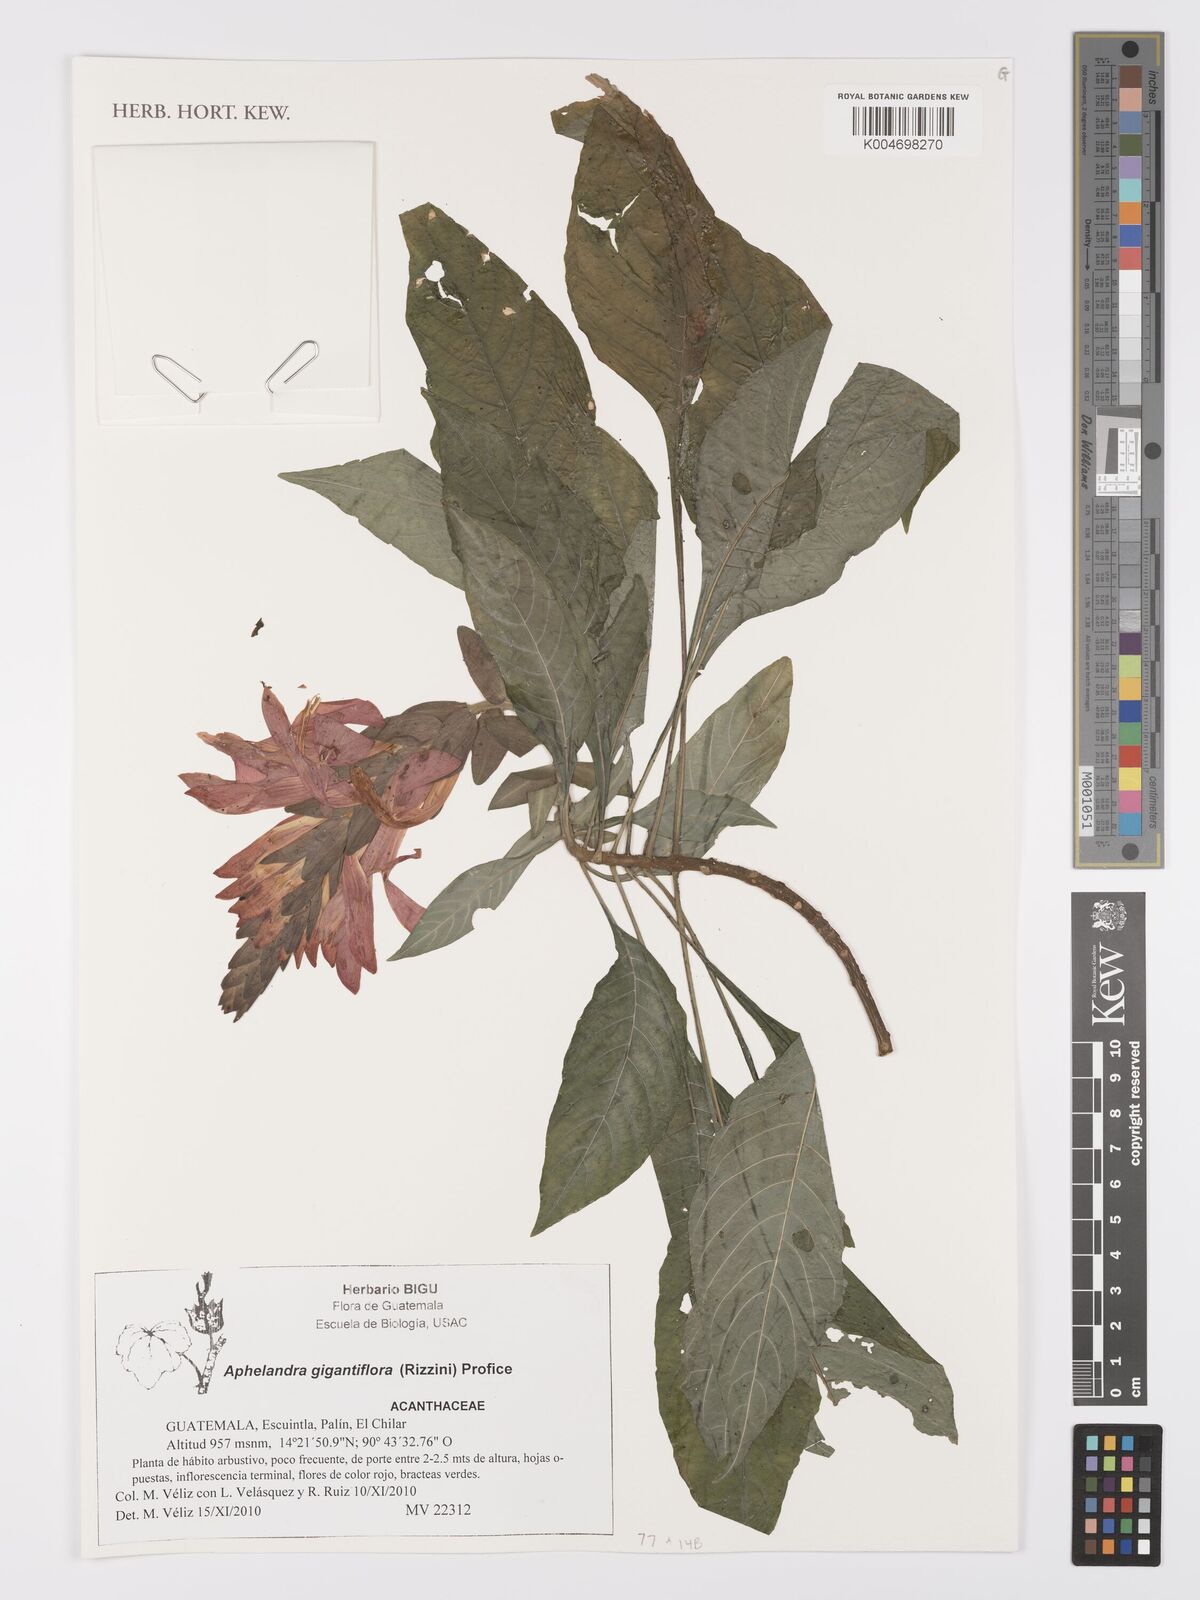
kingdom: Plantae
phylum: Tracheophyta
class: Magnoliopsida
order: Lamiales
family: Acanthaceae
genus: Aphelandra
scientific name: Aphelandra gigantiflora
